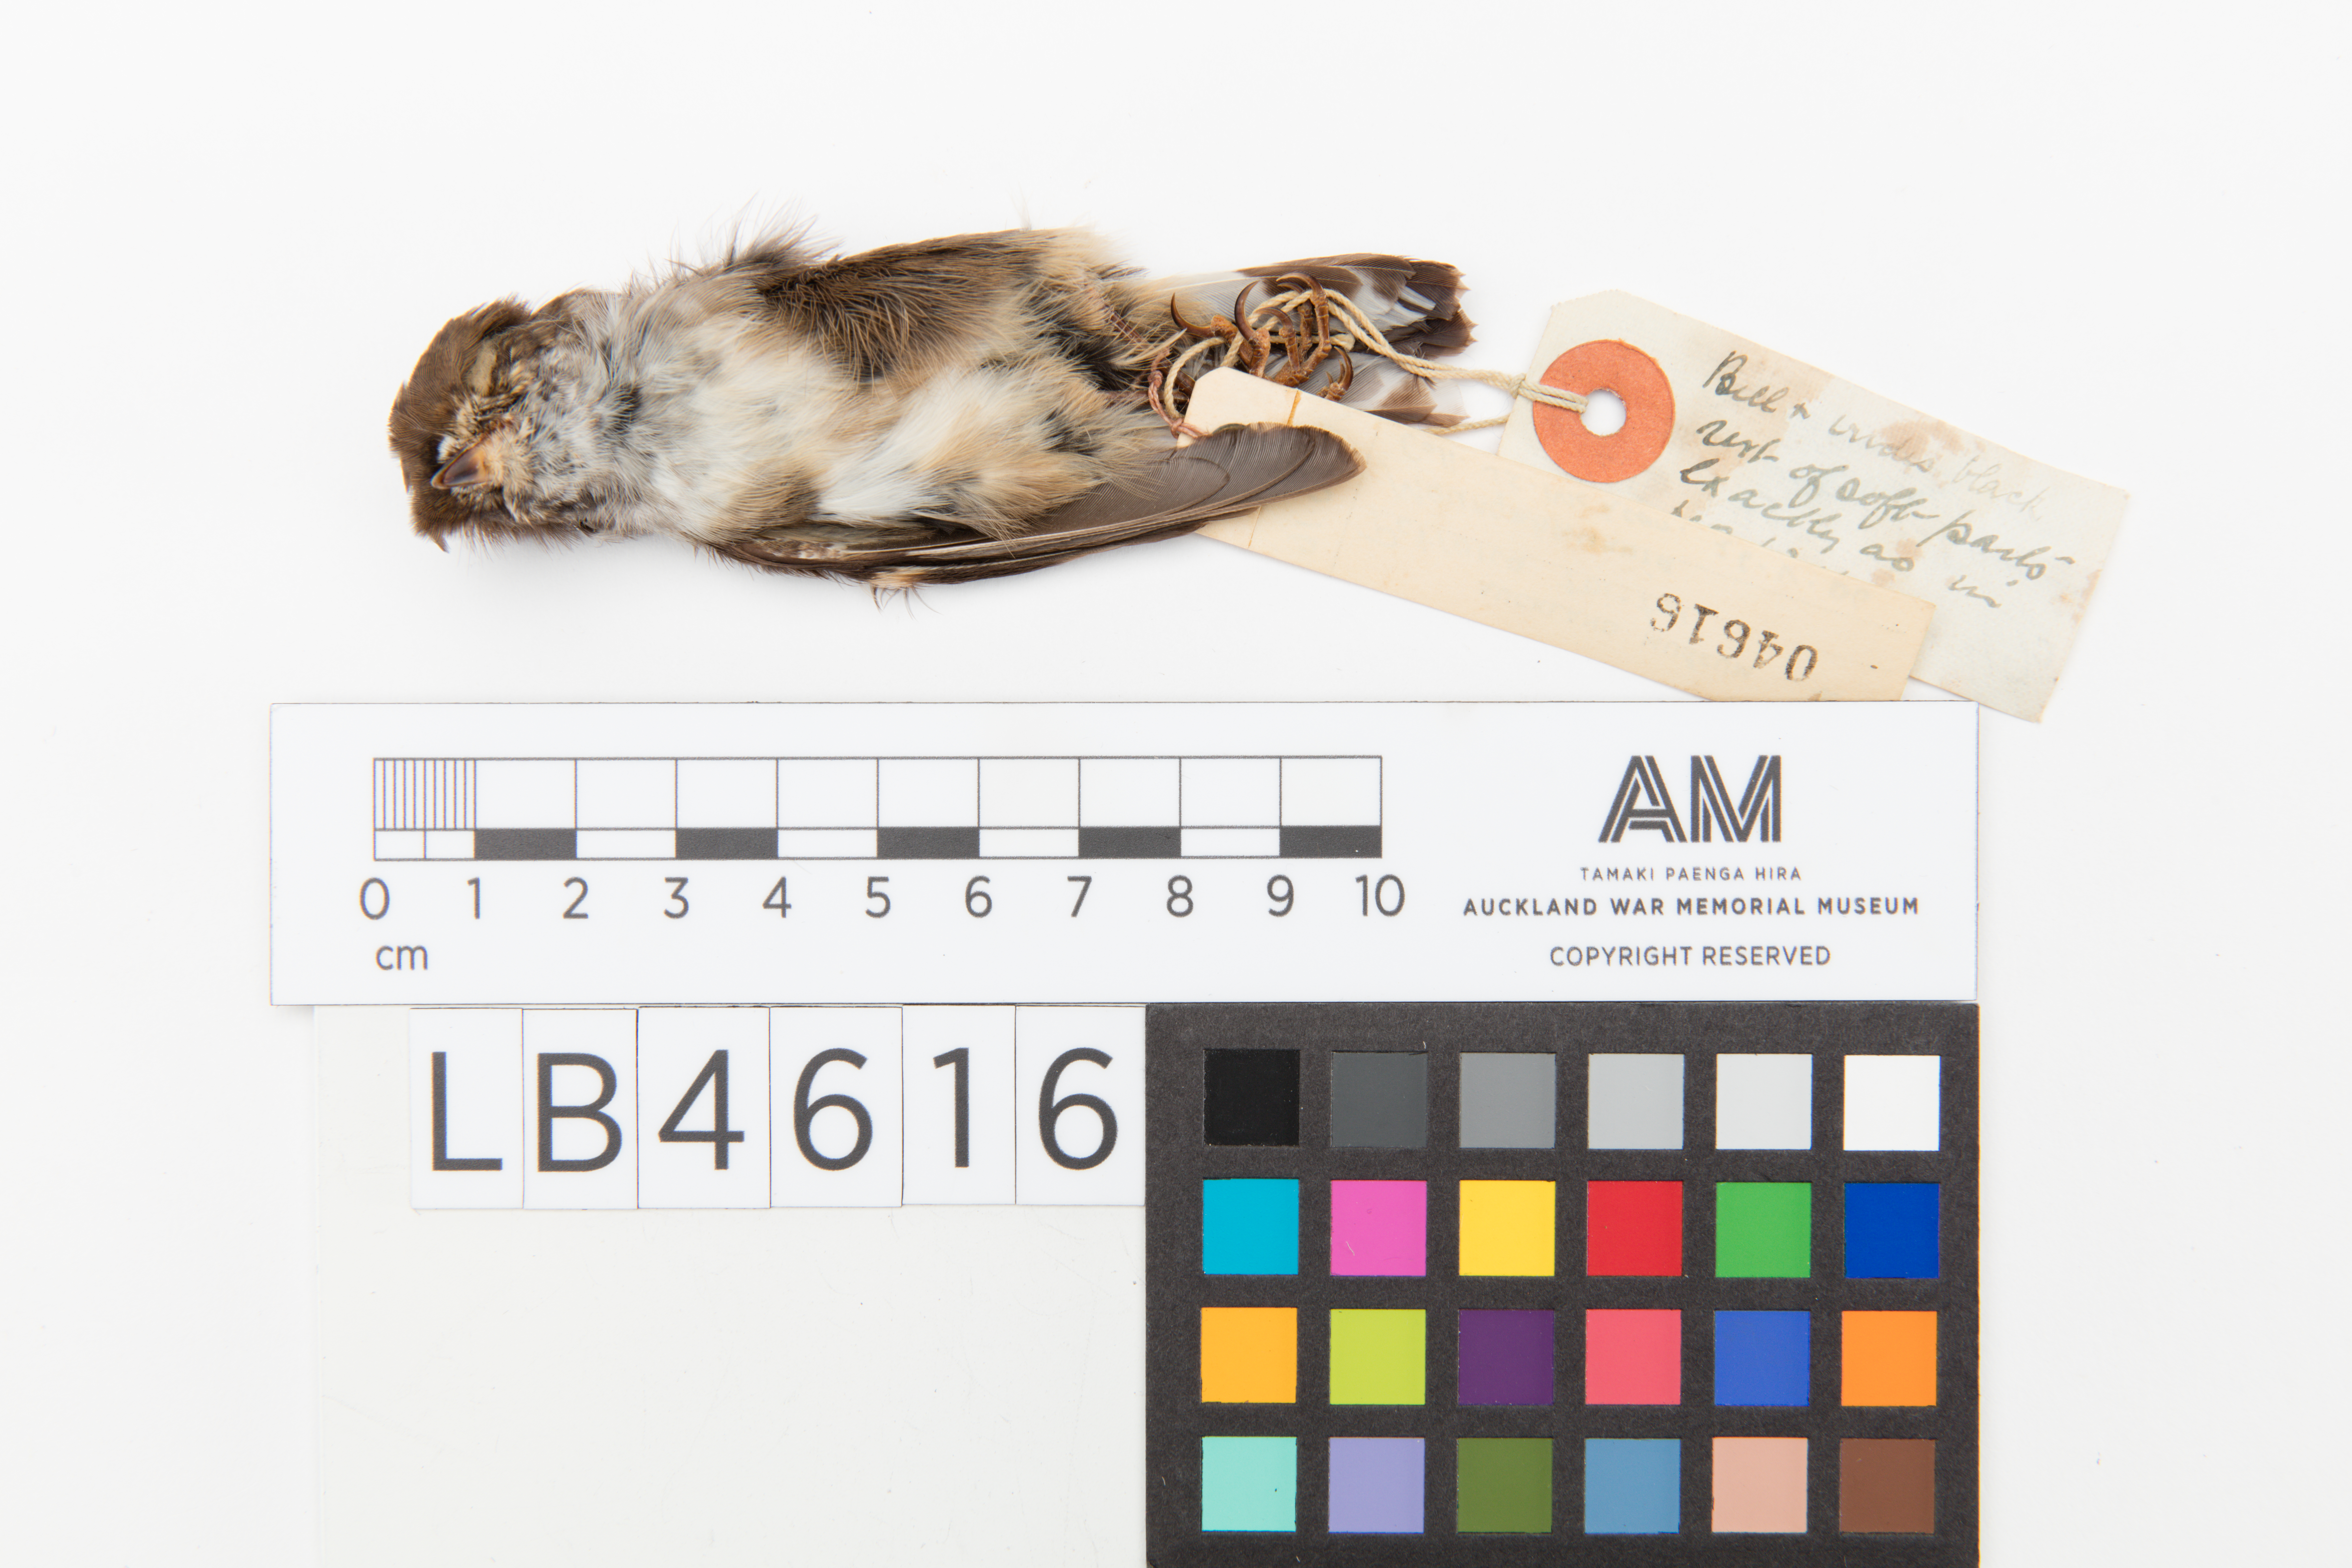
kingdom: Animalia
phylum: Chordata
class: Aves
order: Passeriformes
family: Petroicidae
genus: Petroica
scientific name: Petroica macrocephala
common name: Tomtit
